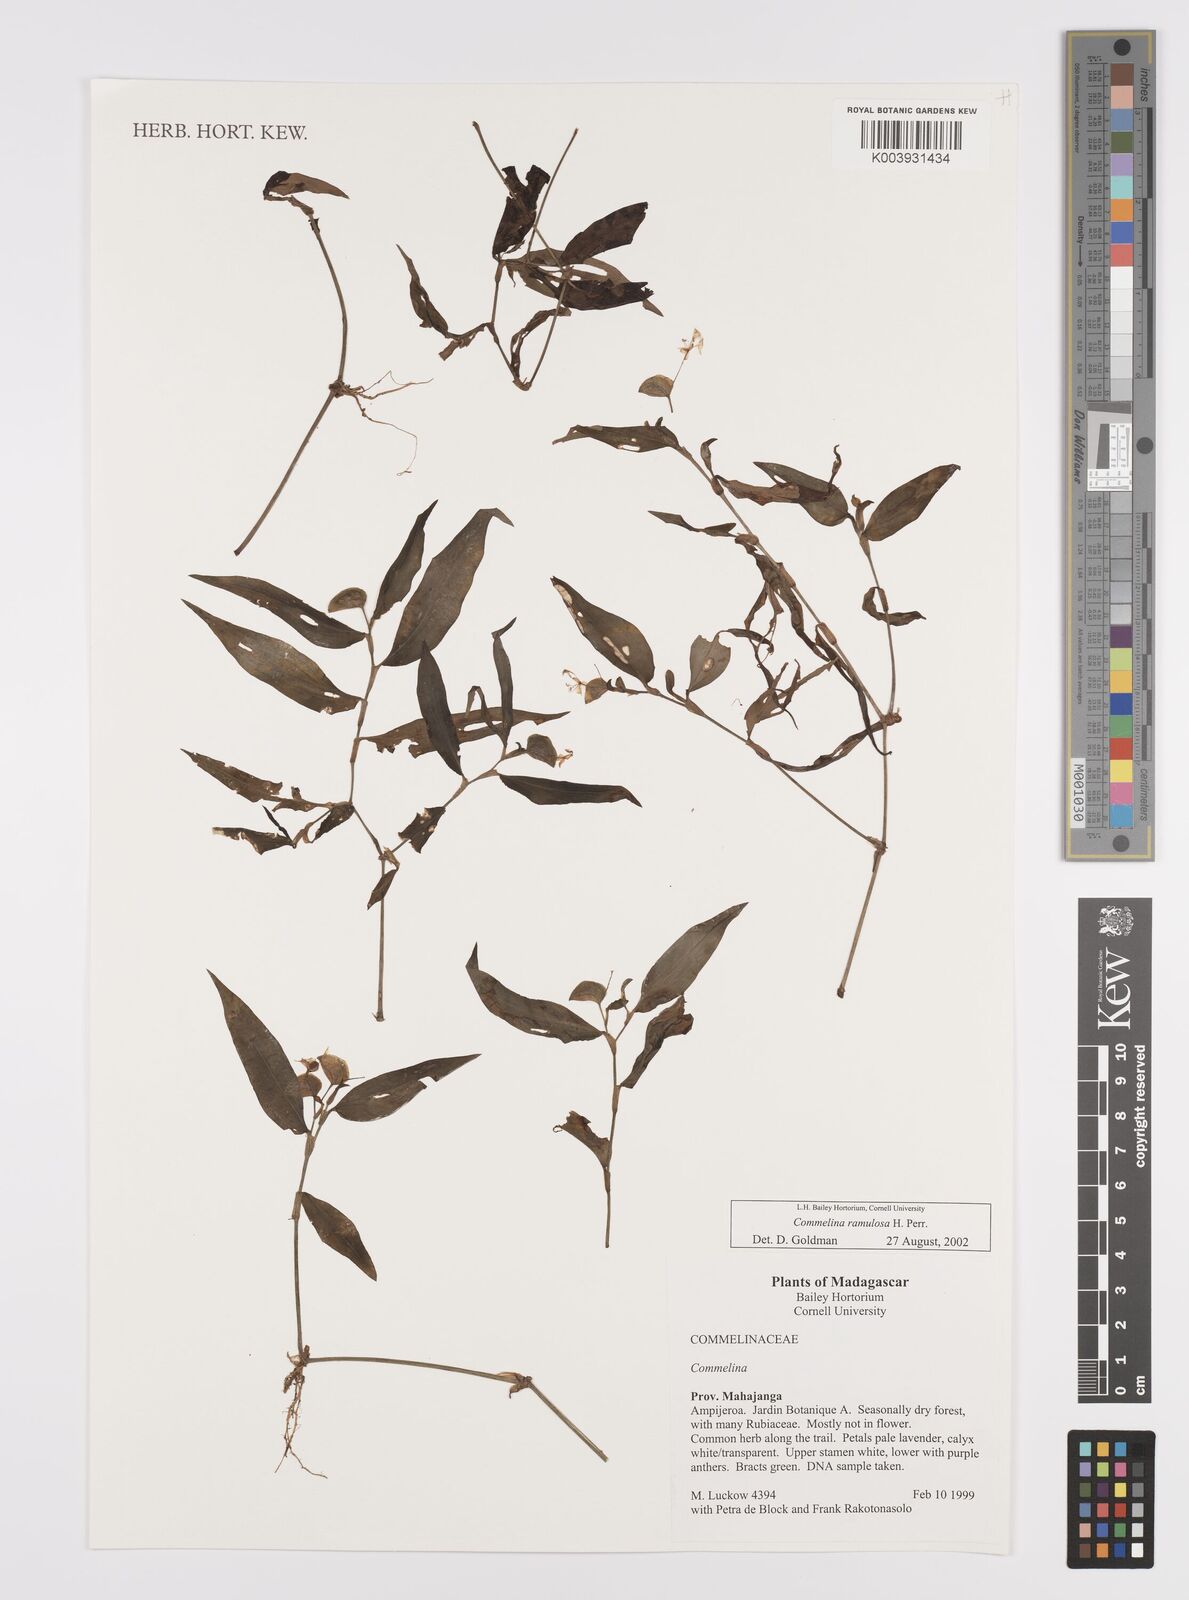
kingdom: Plantae
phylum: Tracheophyta
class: Liliopsida
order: Commelinales
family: Commelinaceae
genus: Commelina
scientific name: Commelina ramulosa
